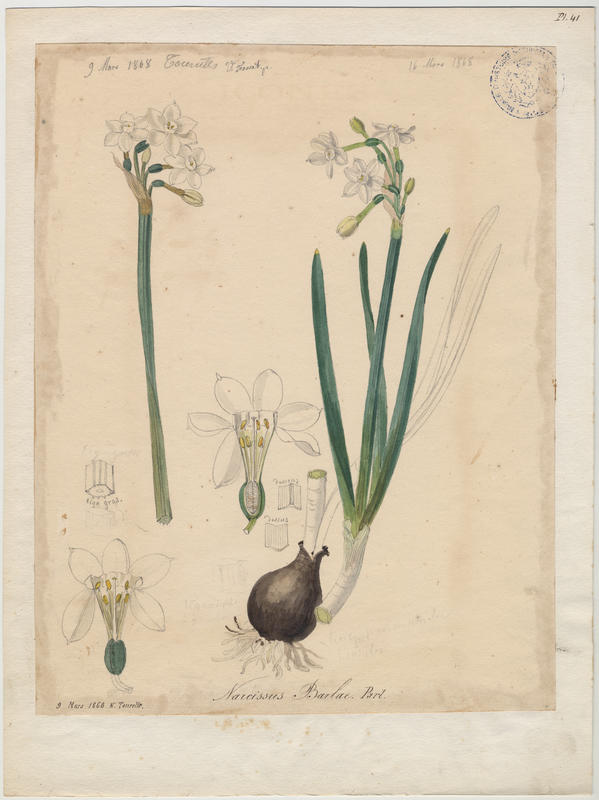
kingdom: Plantae
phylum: Tracheophyta
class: Liliopsida
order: Asparagales
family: Amaryllidaceae
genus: Narcissus
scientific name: Narcissus papyraceus
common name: Paper-white daffodil
